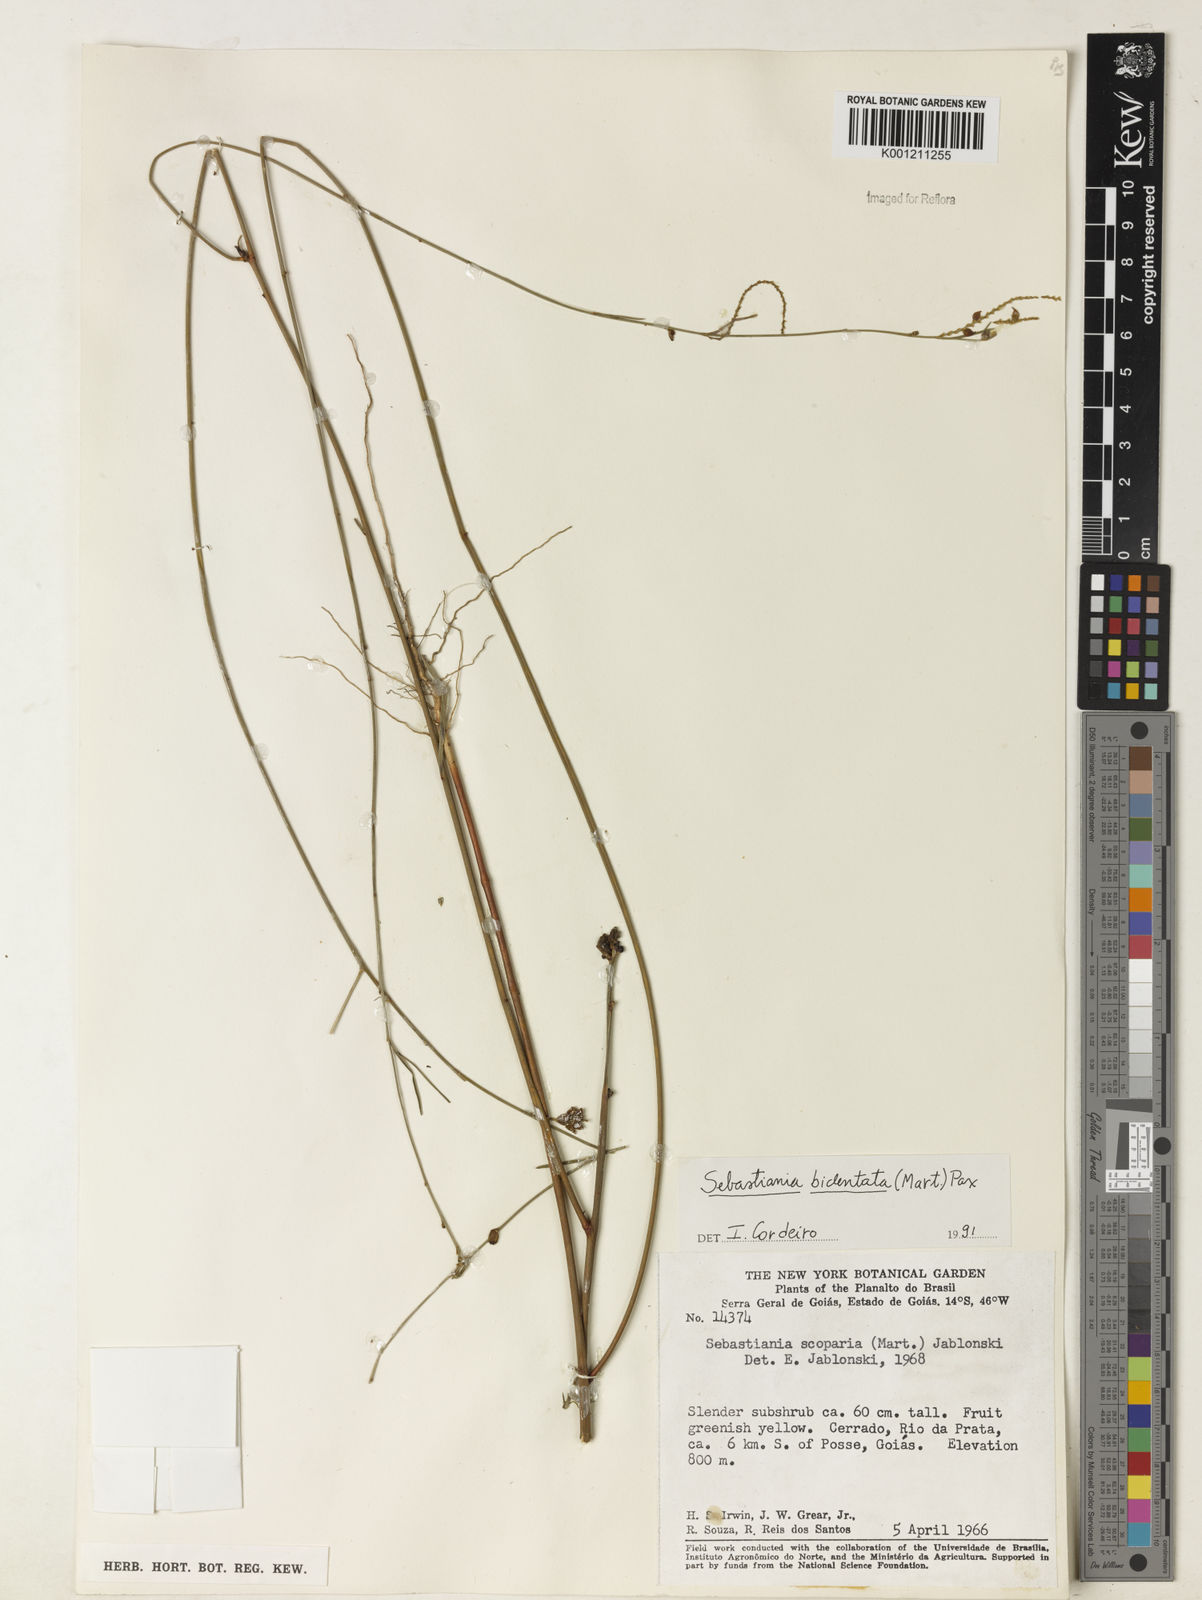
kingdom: Plantae
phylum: Tracheophyta
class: Magnoliopsida
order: Malpighiales
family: Euphorbiaceae
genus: Microstachys
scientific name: Microstachys bidentata
